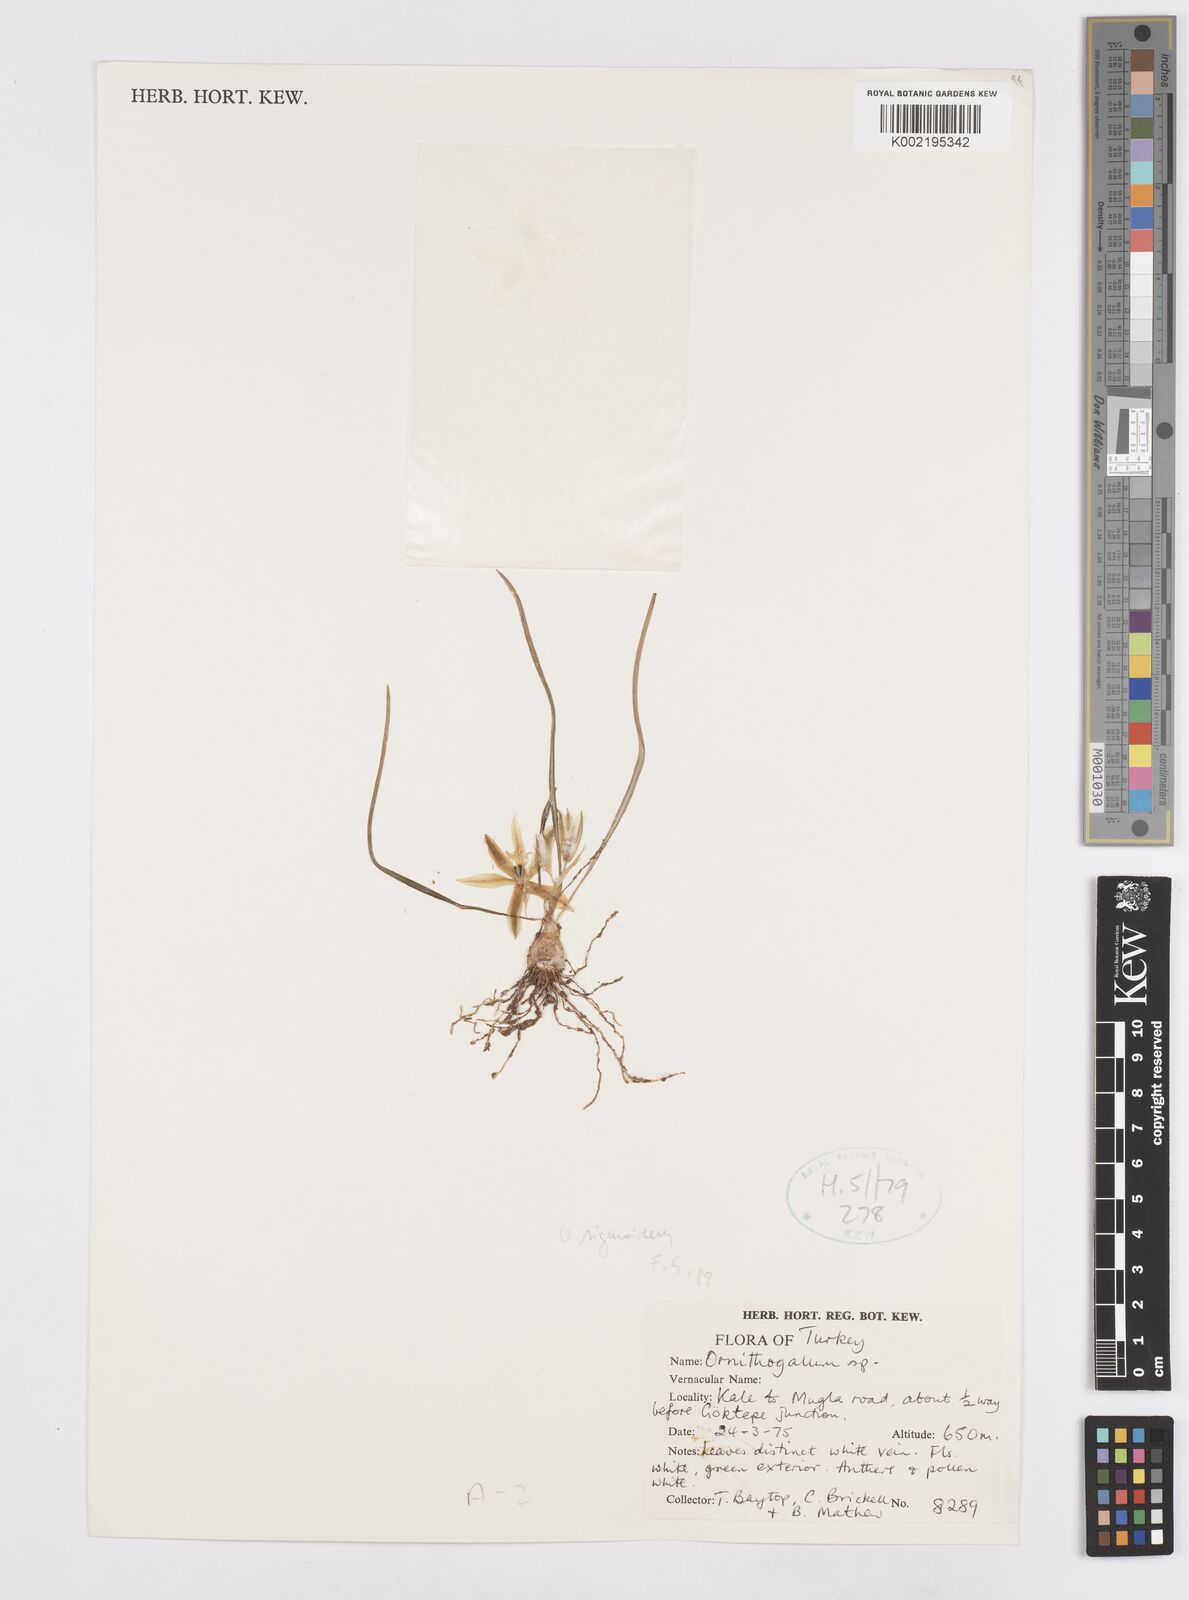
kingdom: Plantae
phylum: Tracheophyta
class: Liliopsida
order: Asparagales
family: Asparagaceae
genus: Ornithogalum
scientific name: Ornithogalum sigmoideum
